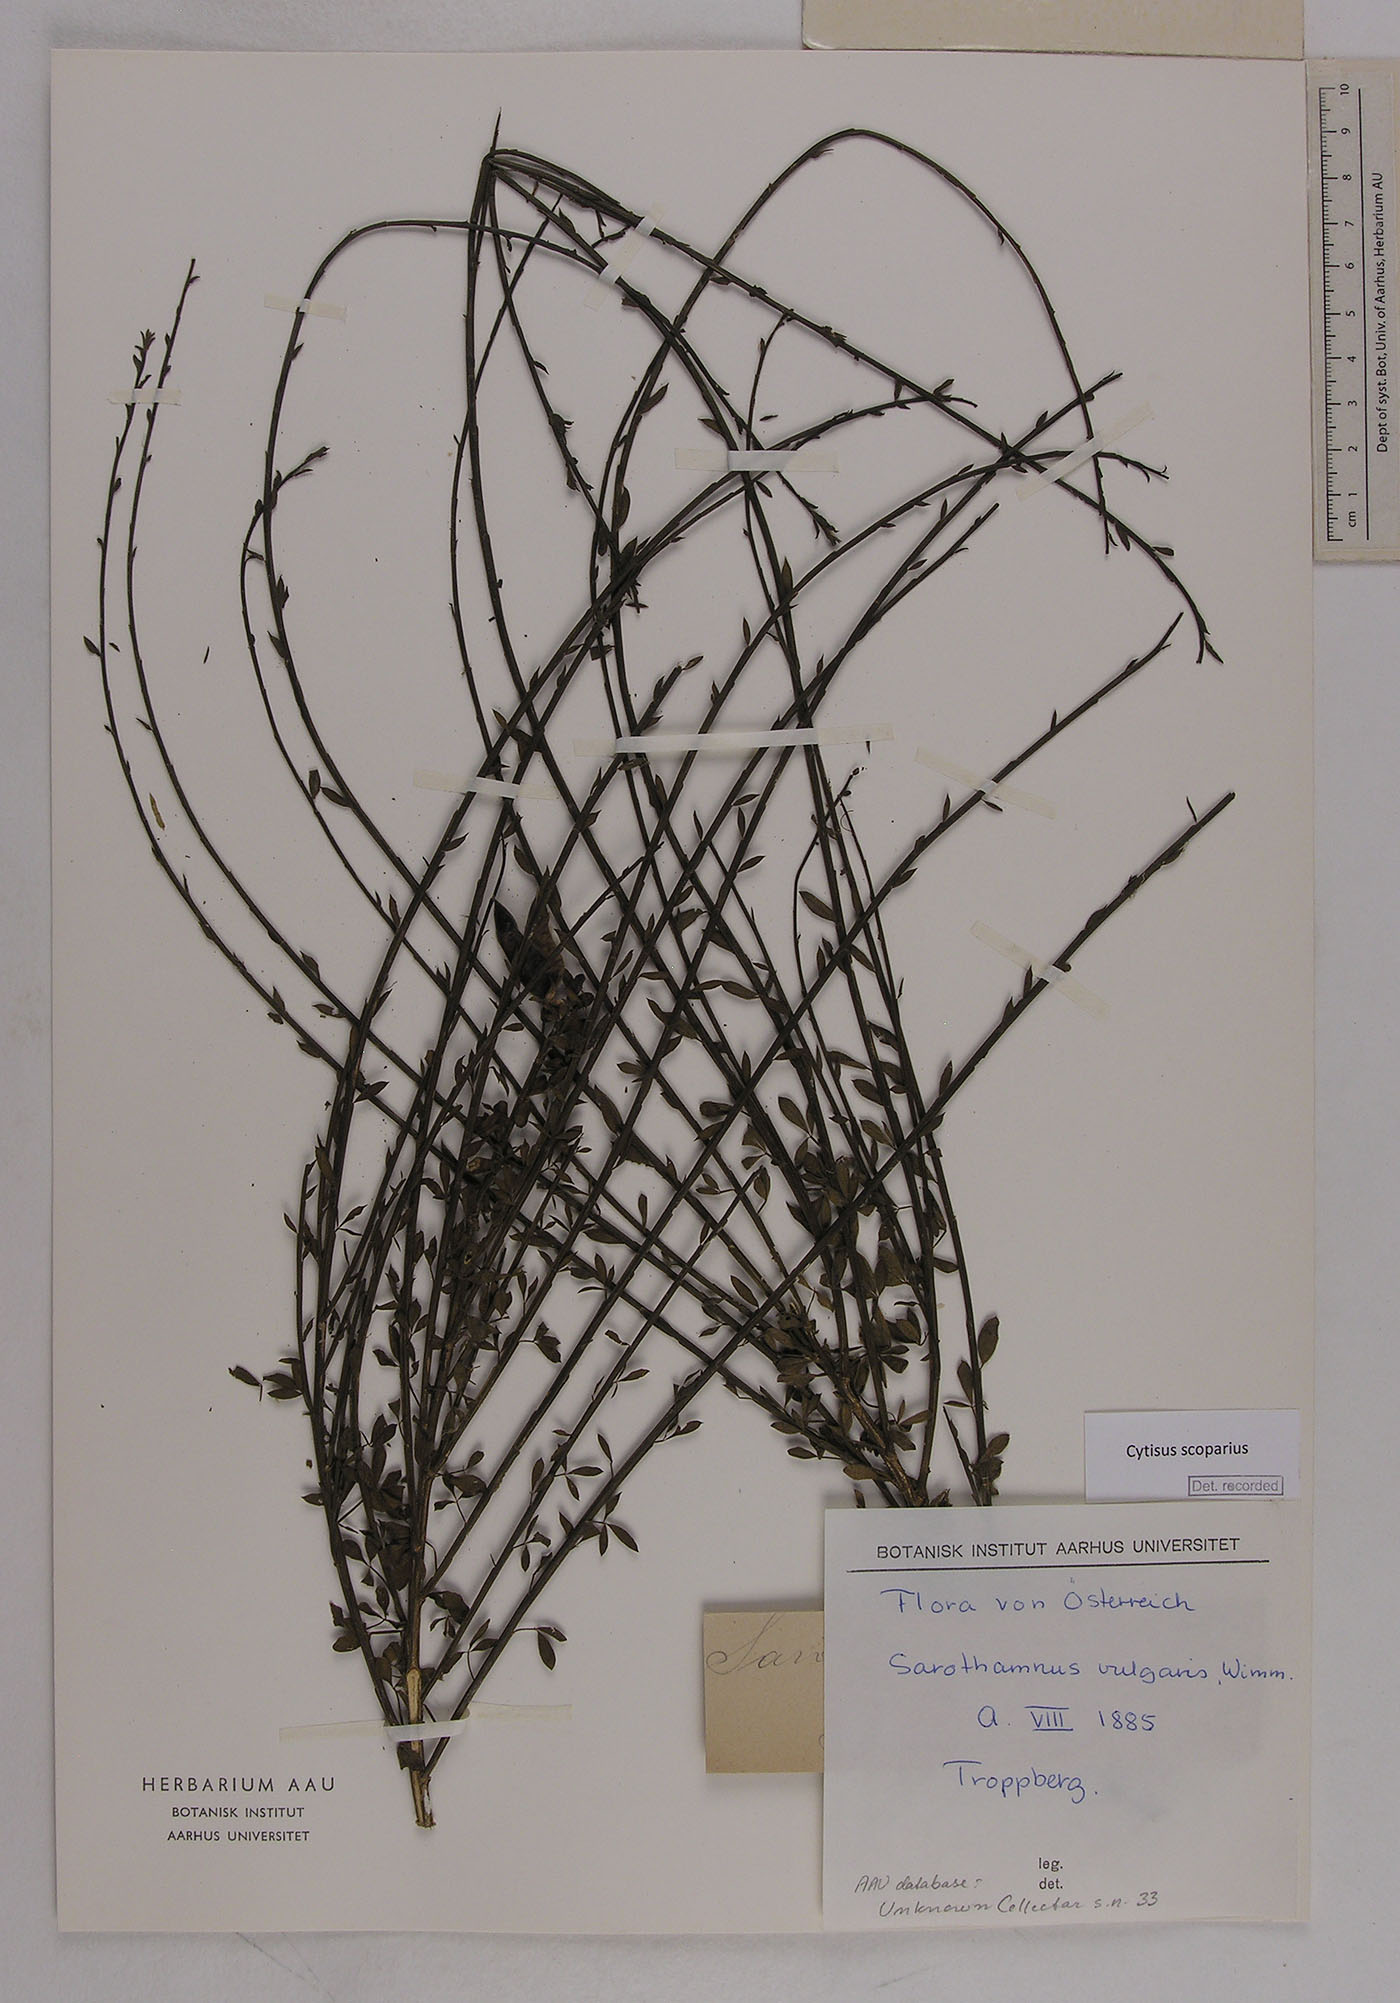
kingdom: Plantae
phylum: Tracheophyta
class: Magnoliopsida
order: Fabales
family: Fabaceae
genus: Cytisus
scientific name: Cytisus scoparius
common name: Scotch broom
